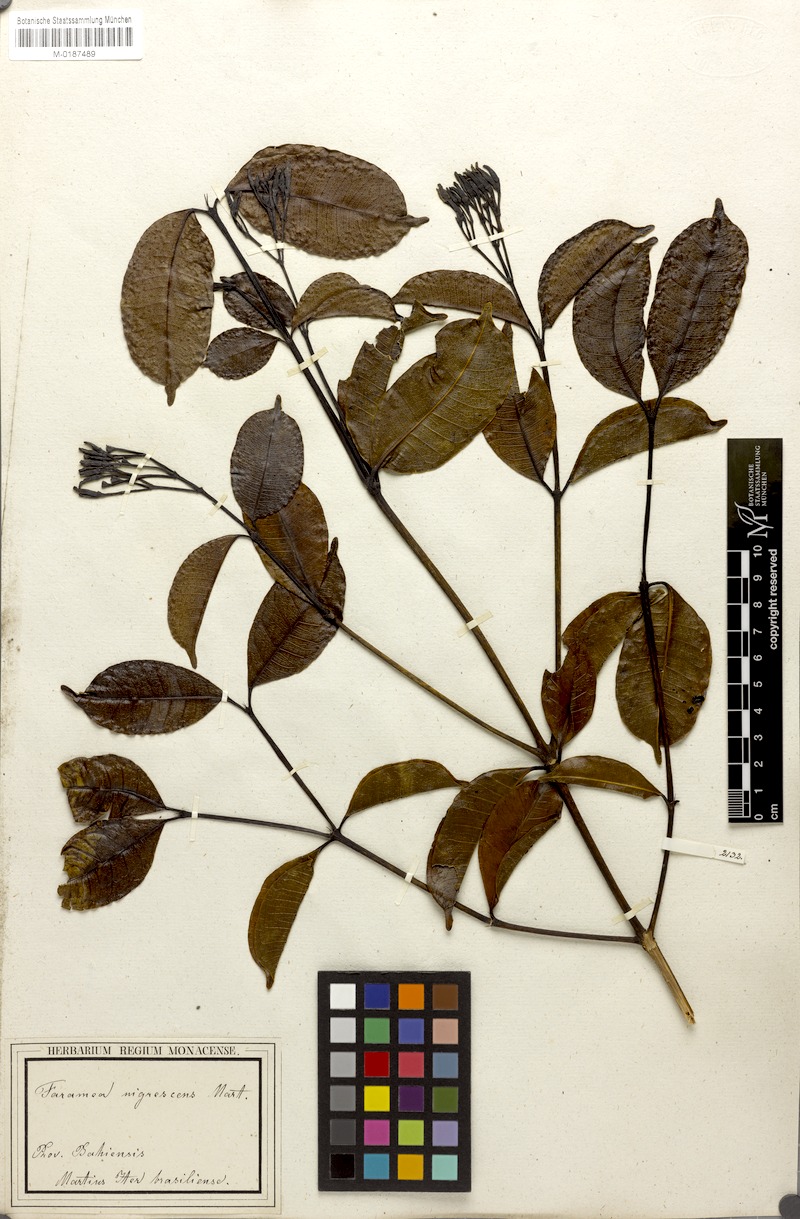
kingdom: Plantae
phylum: Tracheophyta
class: Magnoliopsida
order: Gentianales
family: Rubiaceae
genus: Faramea
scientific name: Faramea nigrescens
